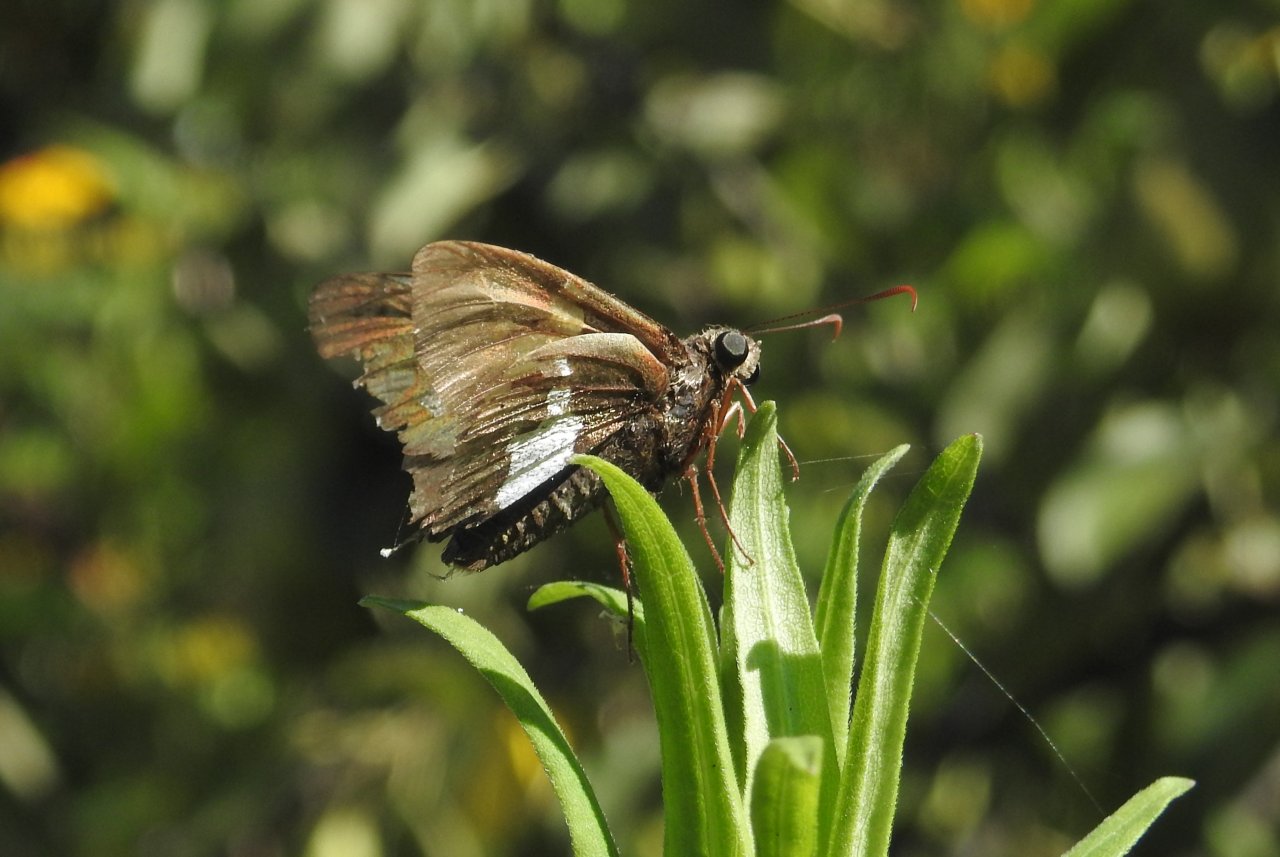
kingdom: Animalia
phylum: Arthropoda
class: Insecta
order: Lepidoptera
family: Hesperiidae
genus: Epargyreus
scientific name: Epargyreus clarus
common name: Silver-spotted Skipper
